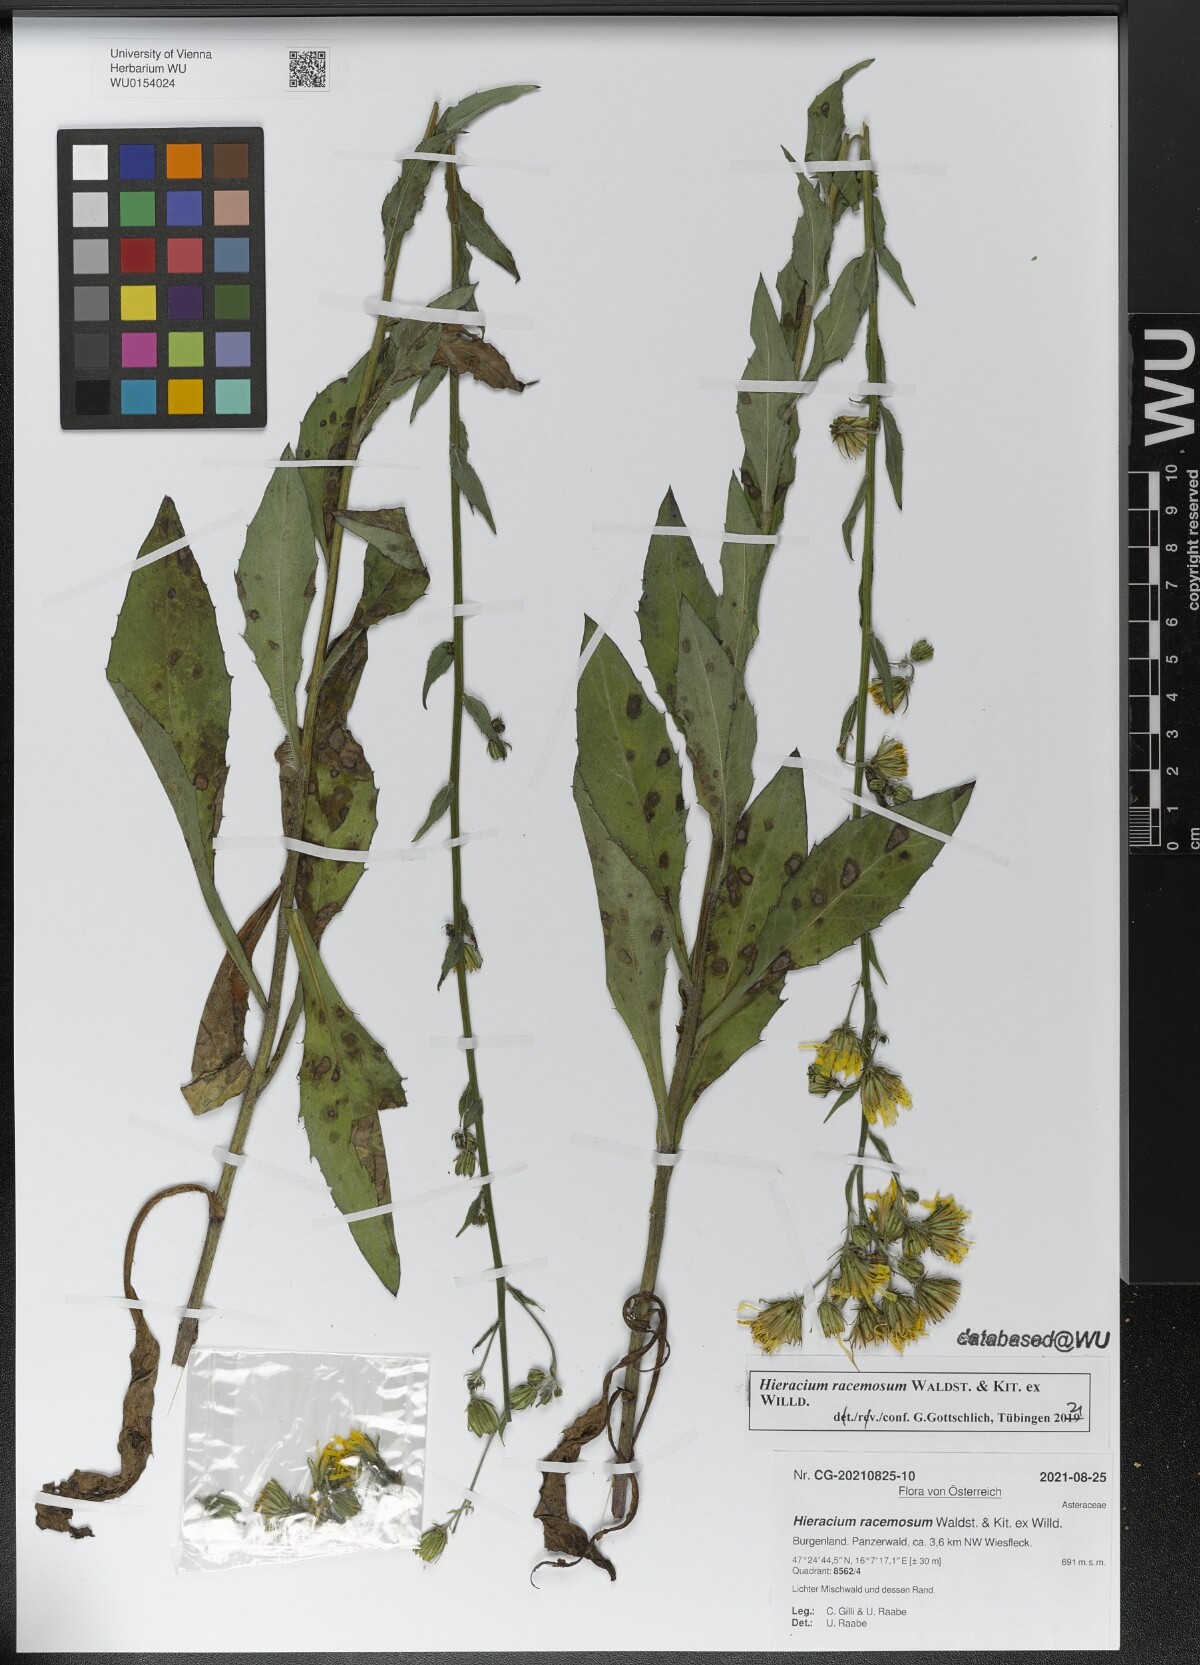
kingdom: Plantae
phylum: Tracheophyta
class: Magnoliopsida
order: Asterales
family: Asteraceae
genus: Hieracium
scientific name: Hieracium racemosum
